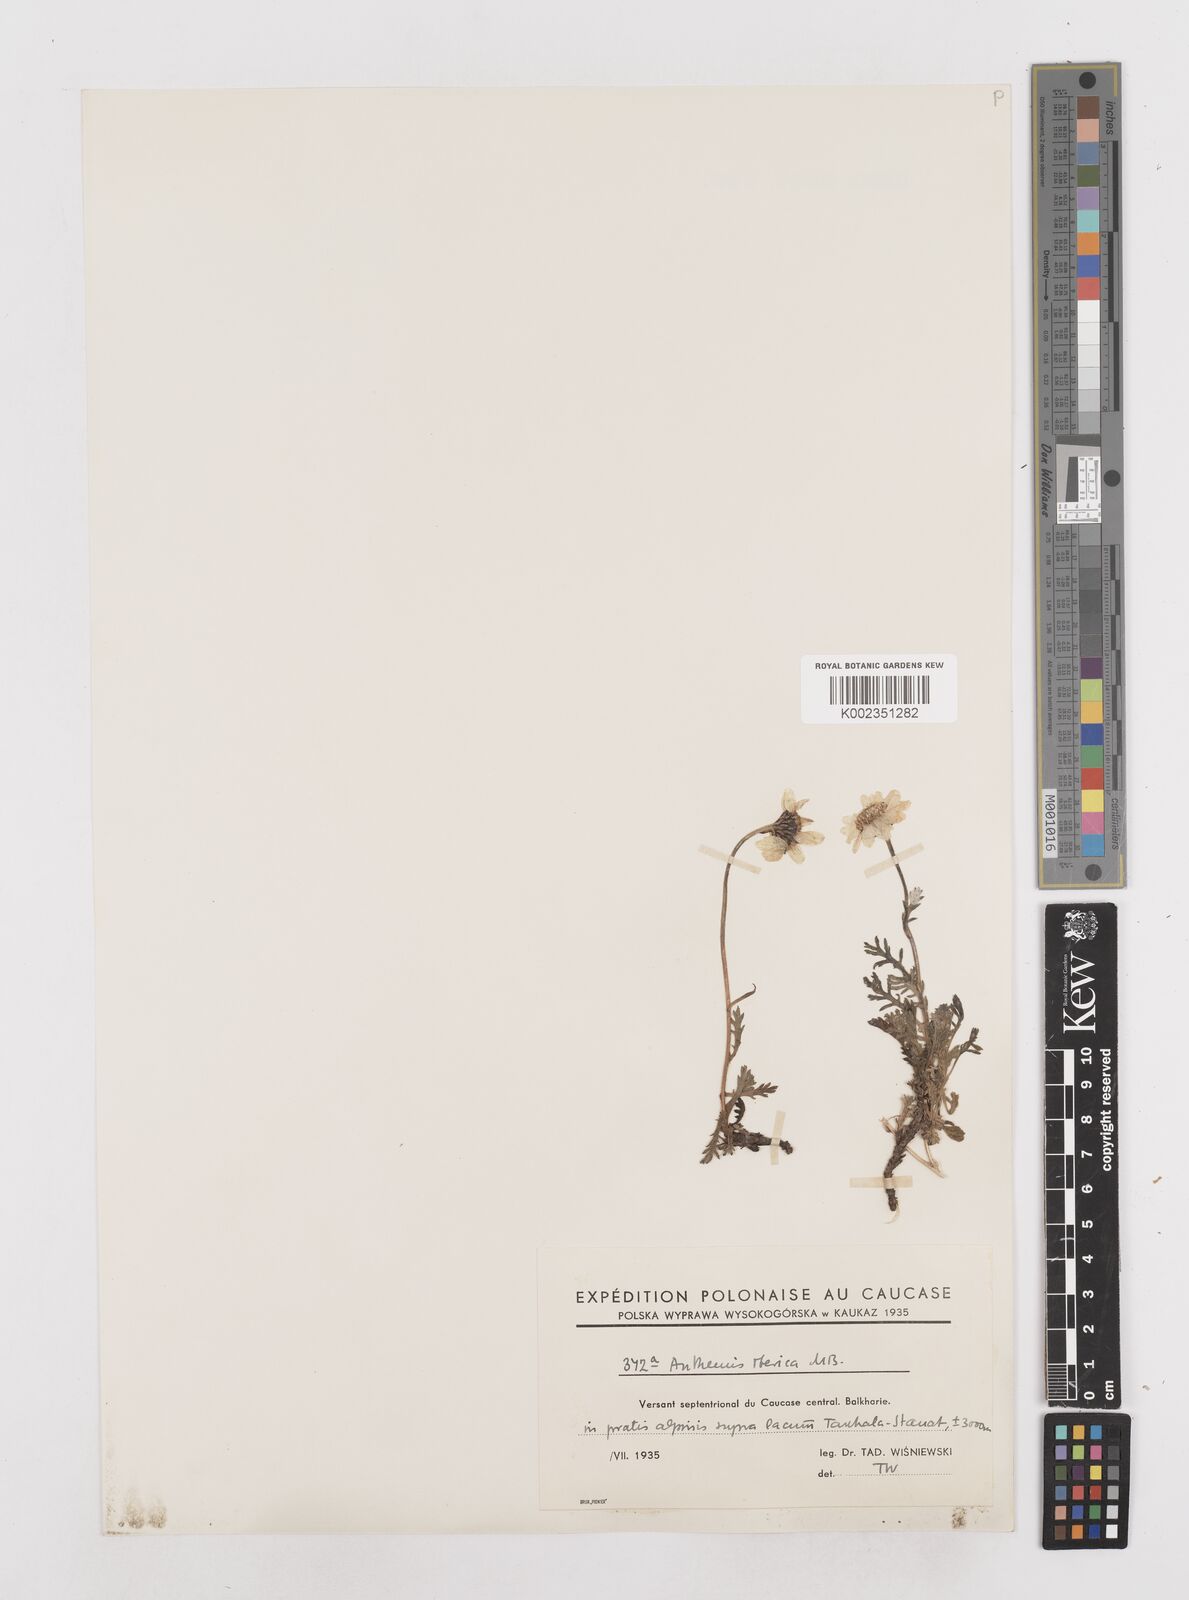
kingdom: Plantae
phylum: Tracheophyta
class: Magnoliopsida
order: Asterales
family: Asteraceae
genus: Anthemis
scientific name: Anthemis cretica
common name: Mountain dog-daisy
